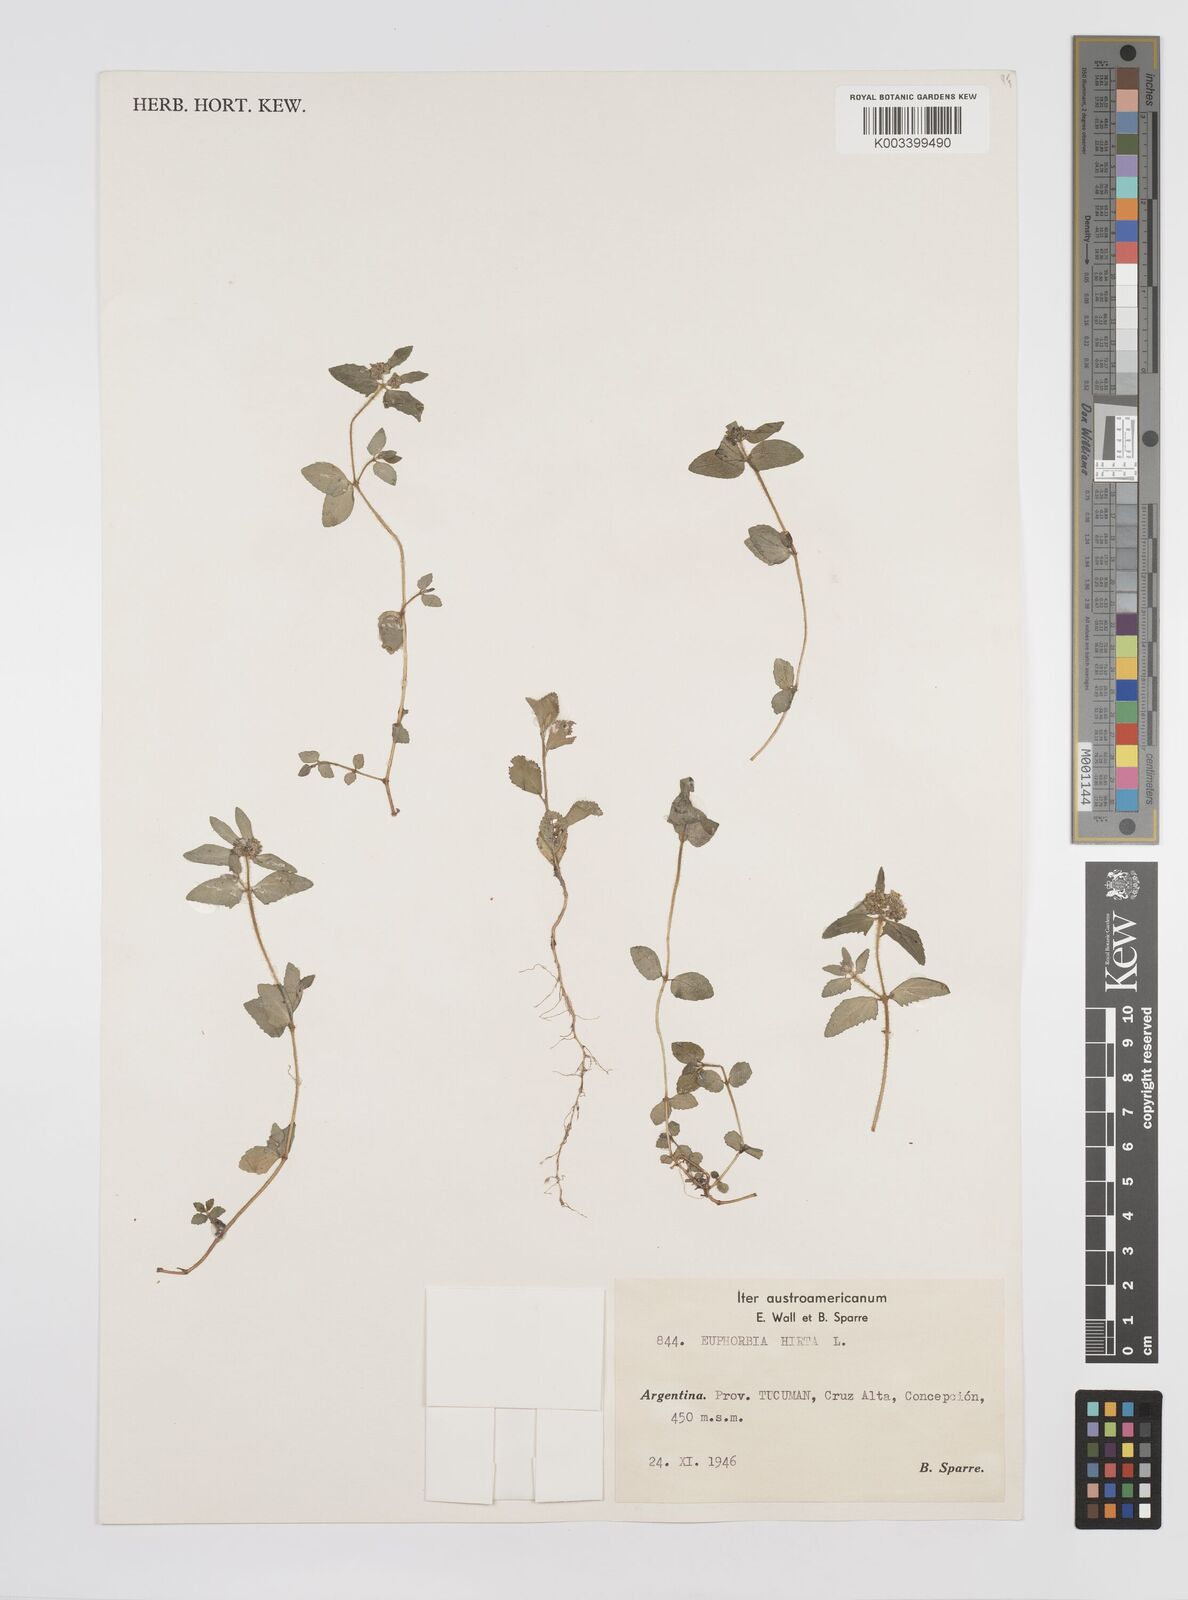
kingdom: Plantae
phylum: Tracheophyta
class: Magnoliopsida
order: Malpighiales
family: Euphorbiaceae
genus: Euphorbia
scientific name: Euphorbia hirta
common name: Pillpod sandmat
